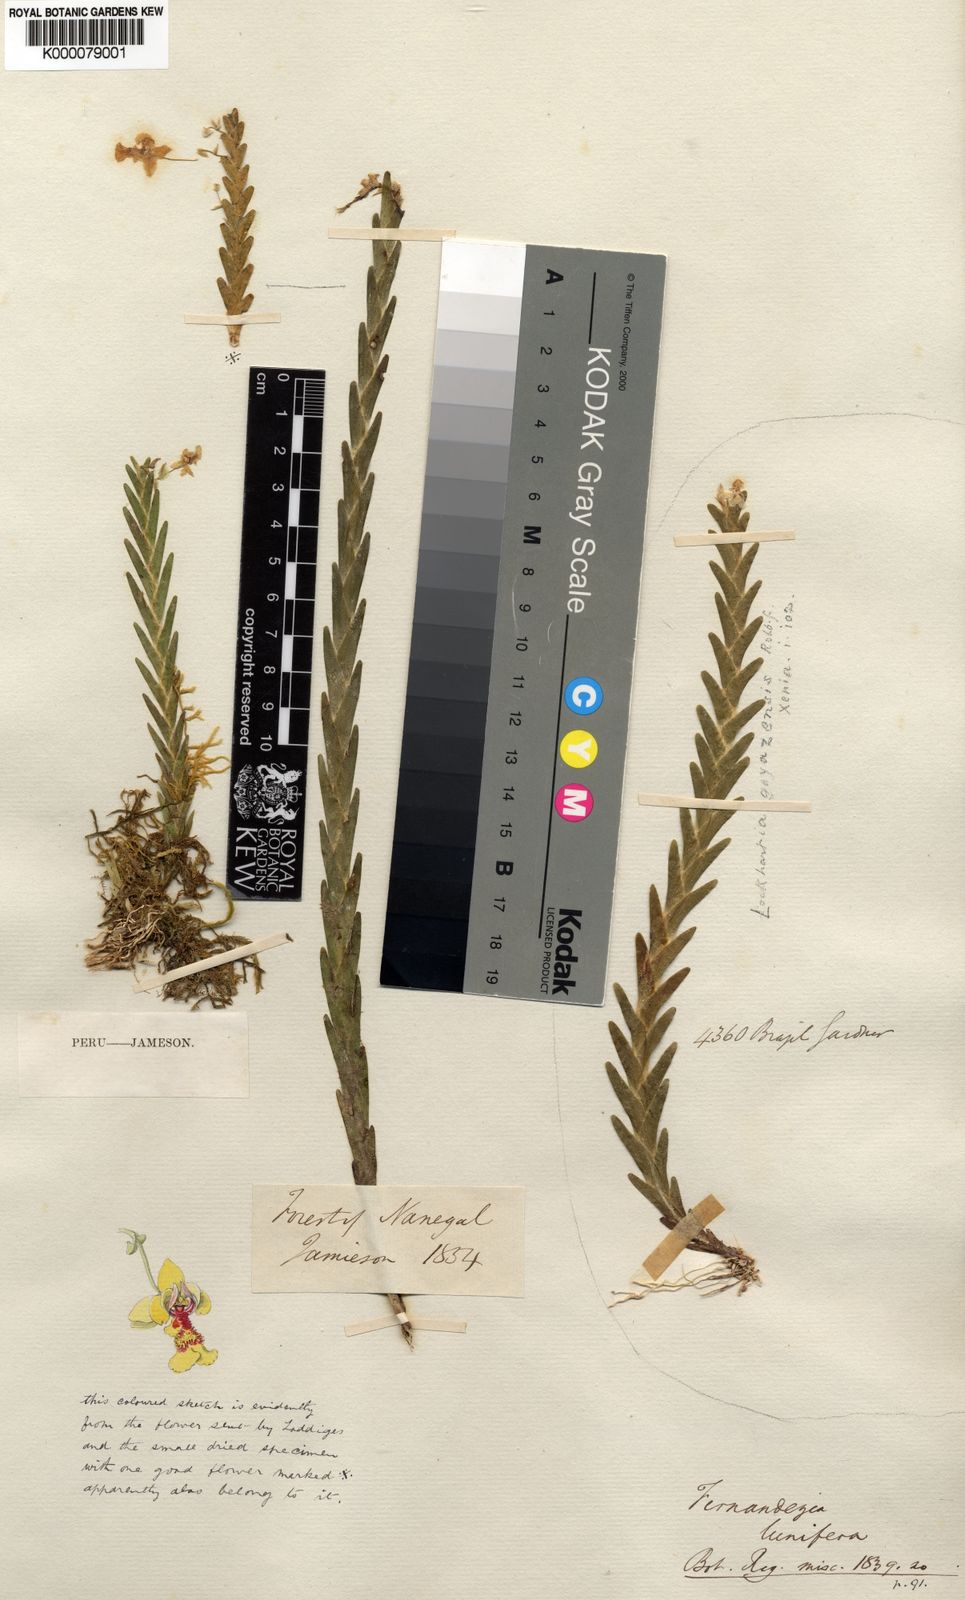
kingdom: Plantae
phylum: Tracheophyta
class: Liliopsida
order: Asparagales
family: Orchidaceae
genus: Lockhartia
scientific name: Lockhartia lunifera
